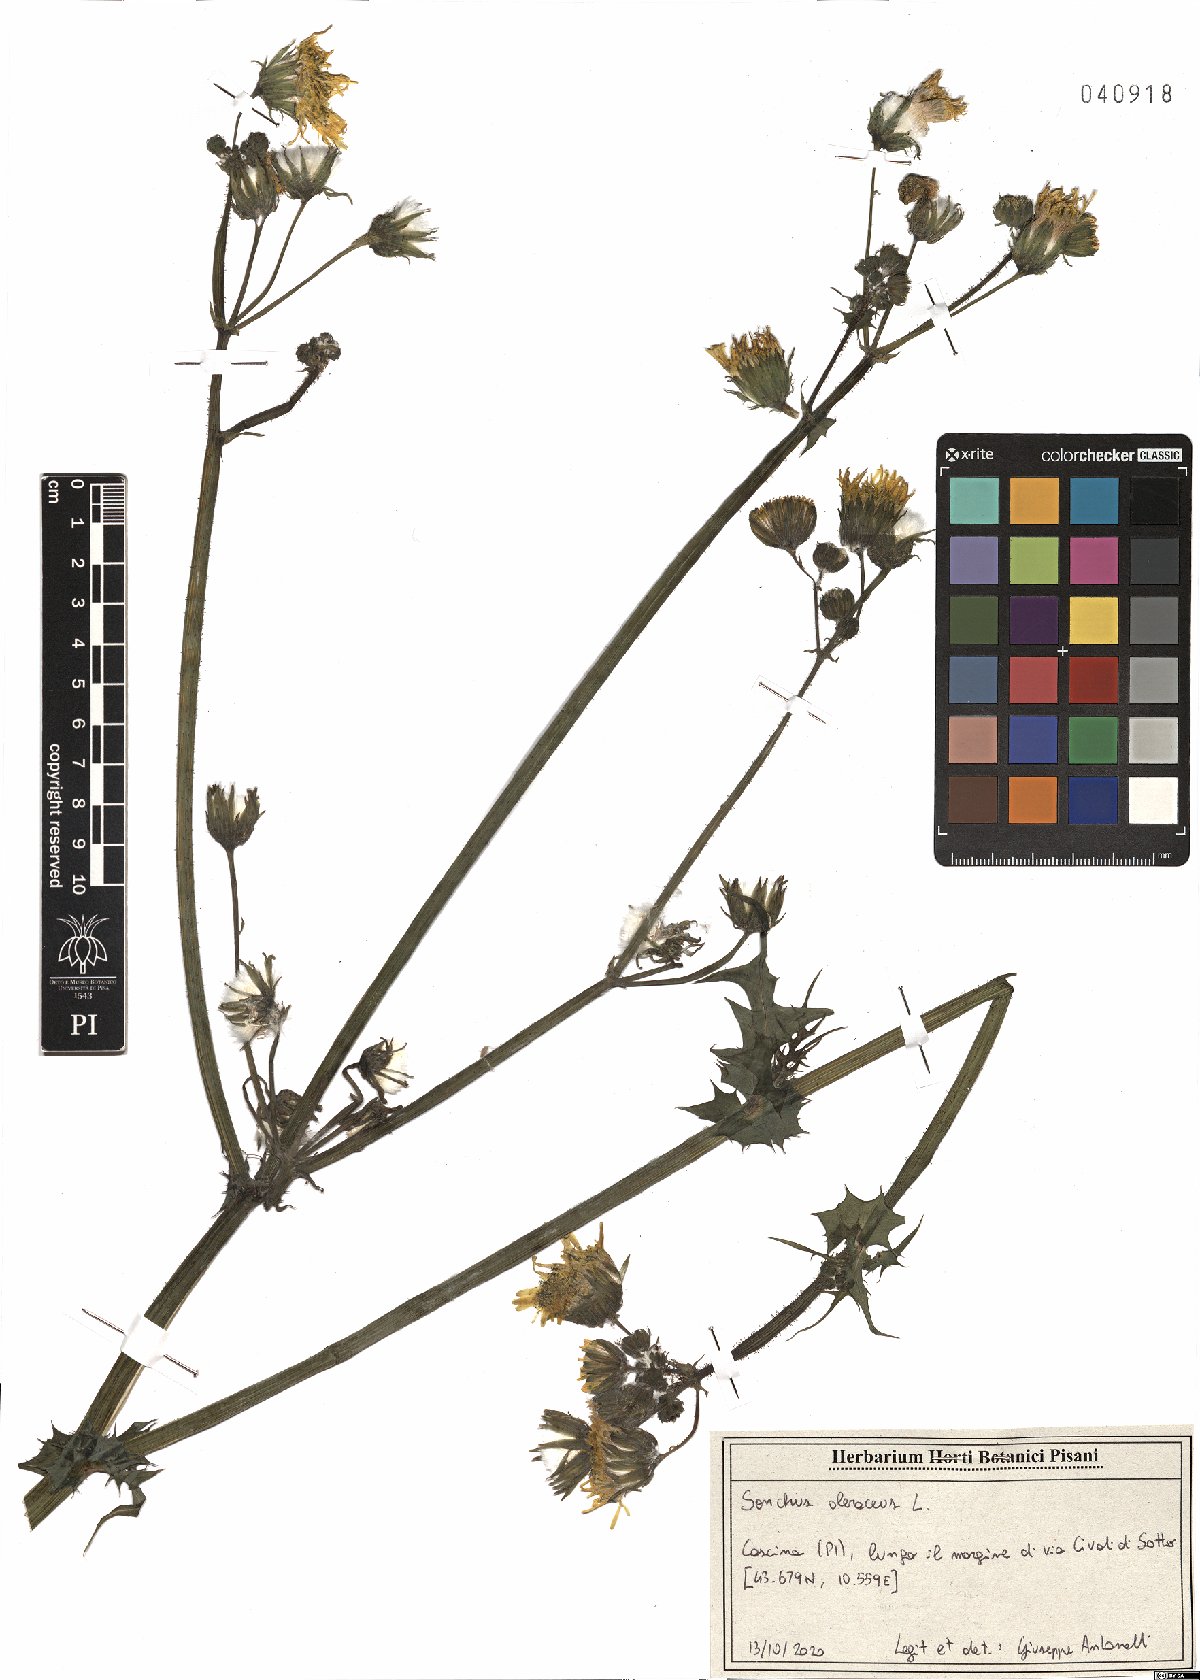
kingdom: Plantae
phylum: Tracheophyta
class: Magnoliopsida
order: Asterales
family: Asteraceae
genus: Sonchus
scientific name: Sonchus oleraceus
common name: Common sowthistle
